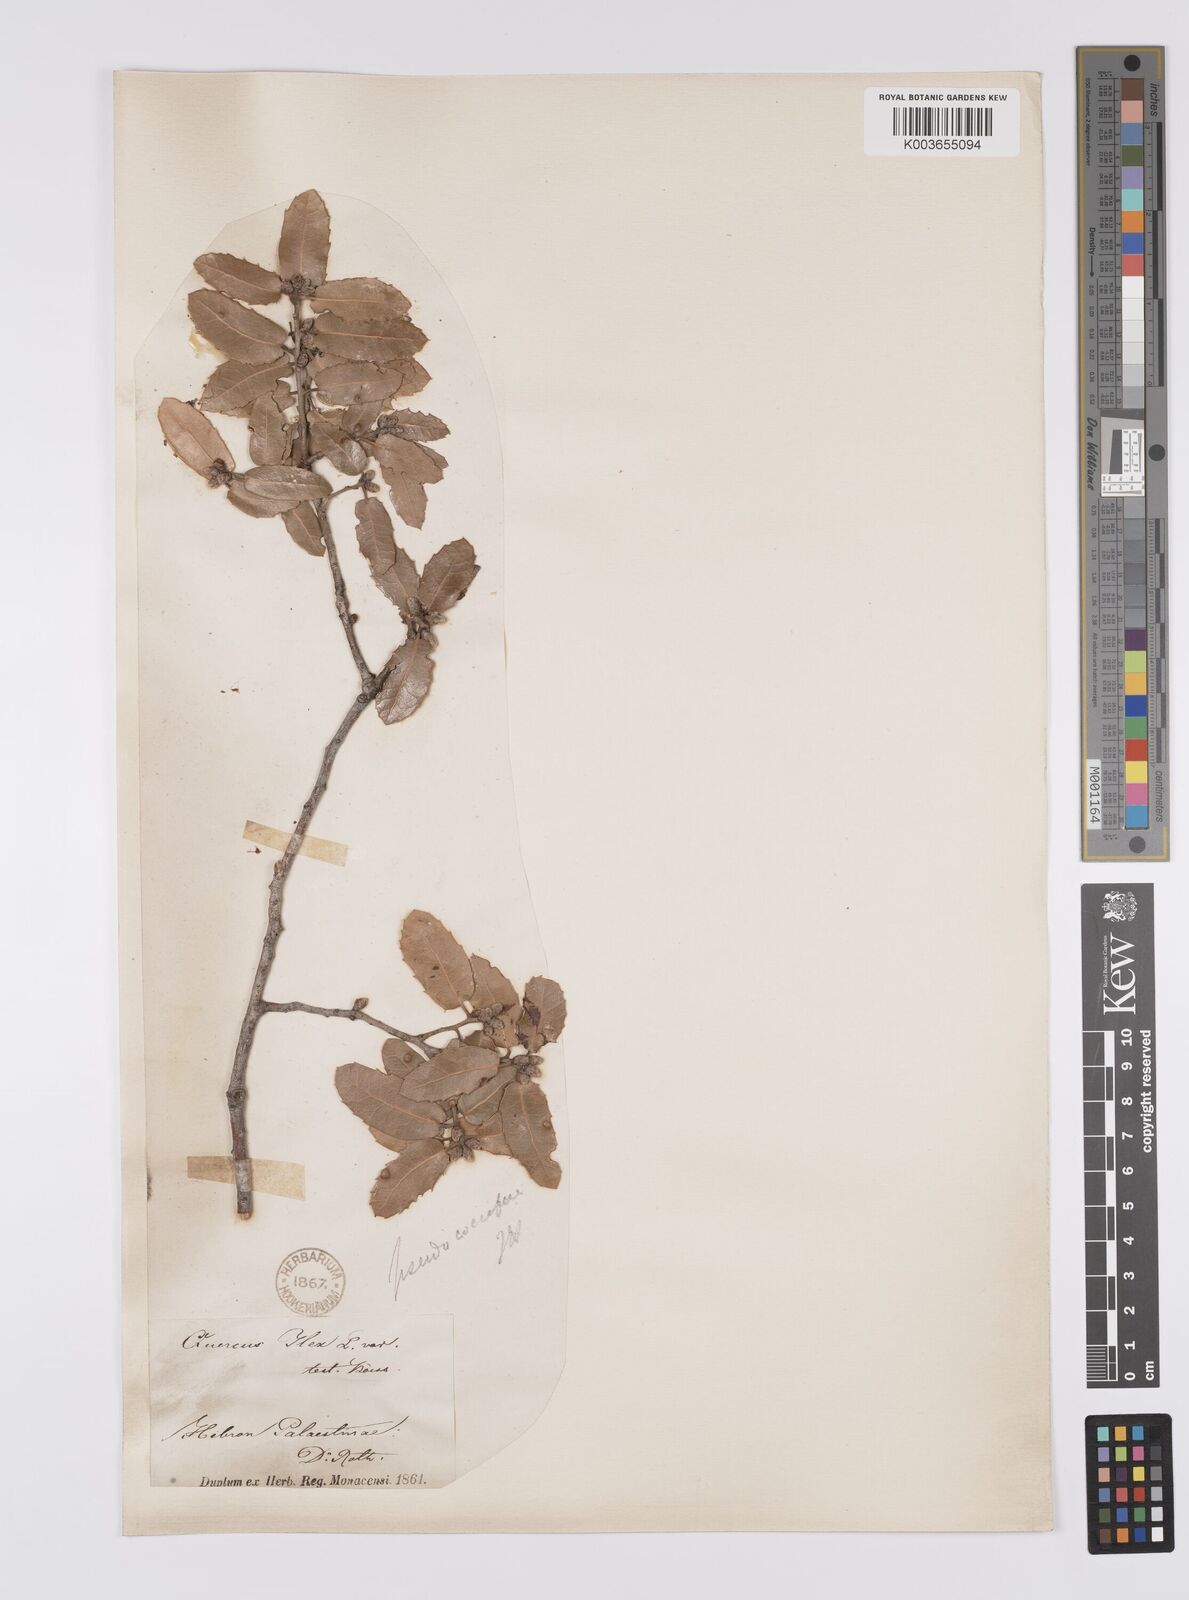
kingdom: Plantae
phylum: Tracheophyta
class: Magnoliopsida
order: Fagales
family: Fagaceae
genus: Quercus
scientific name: Quercus coccifera
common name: Kermes oak
